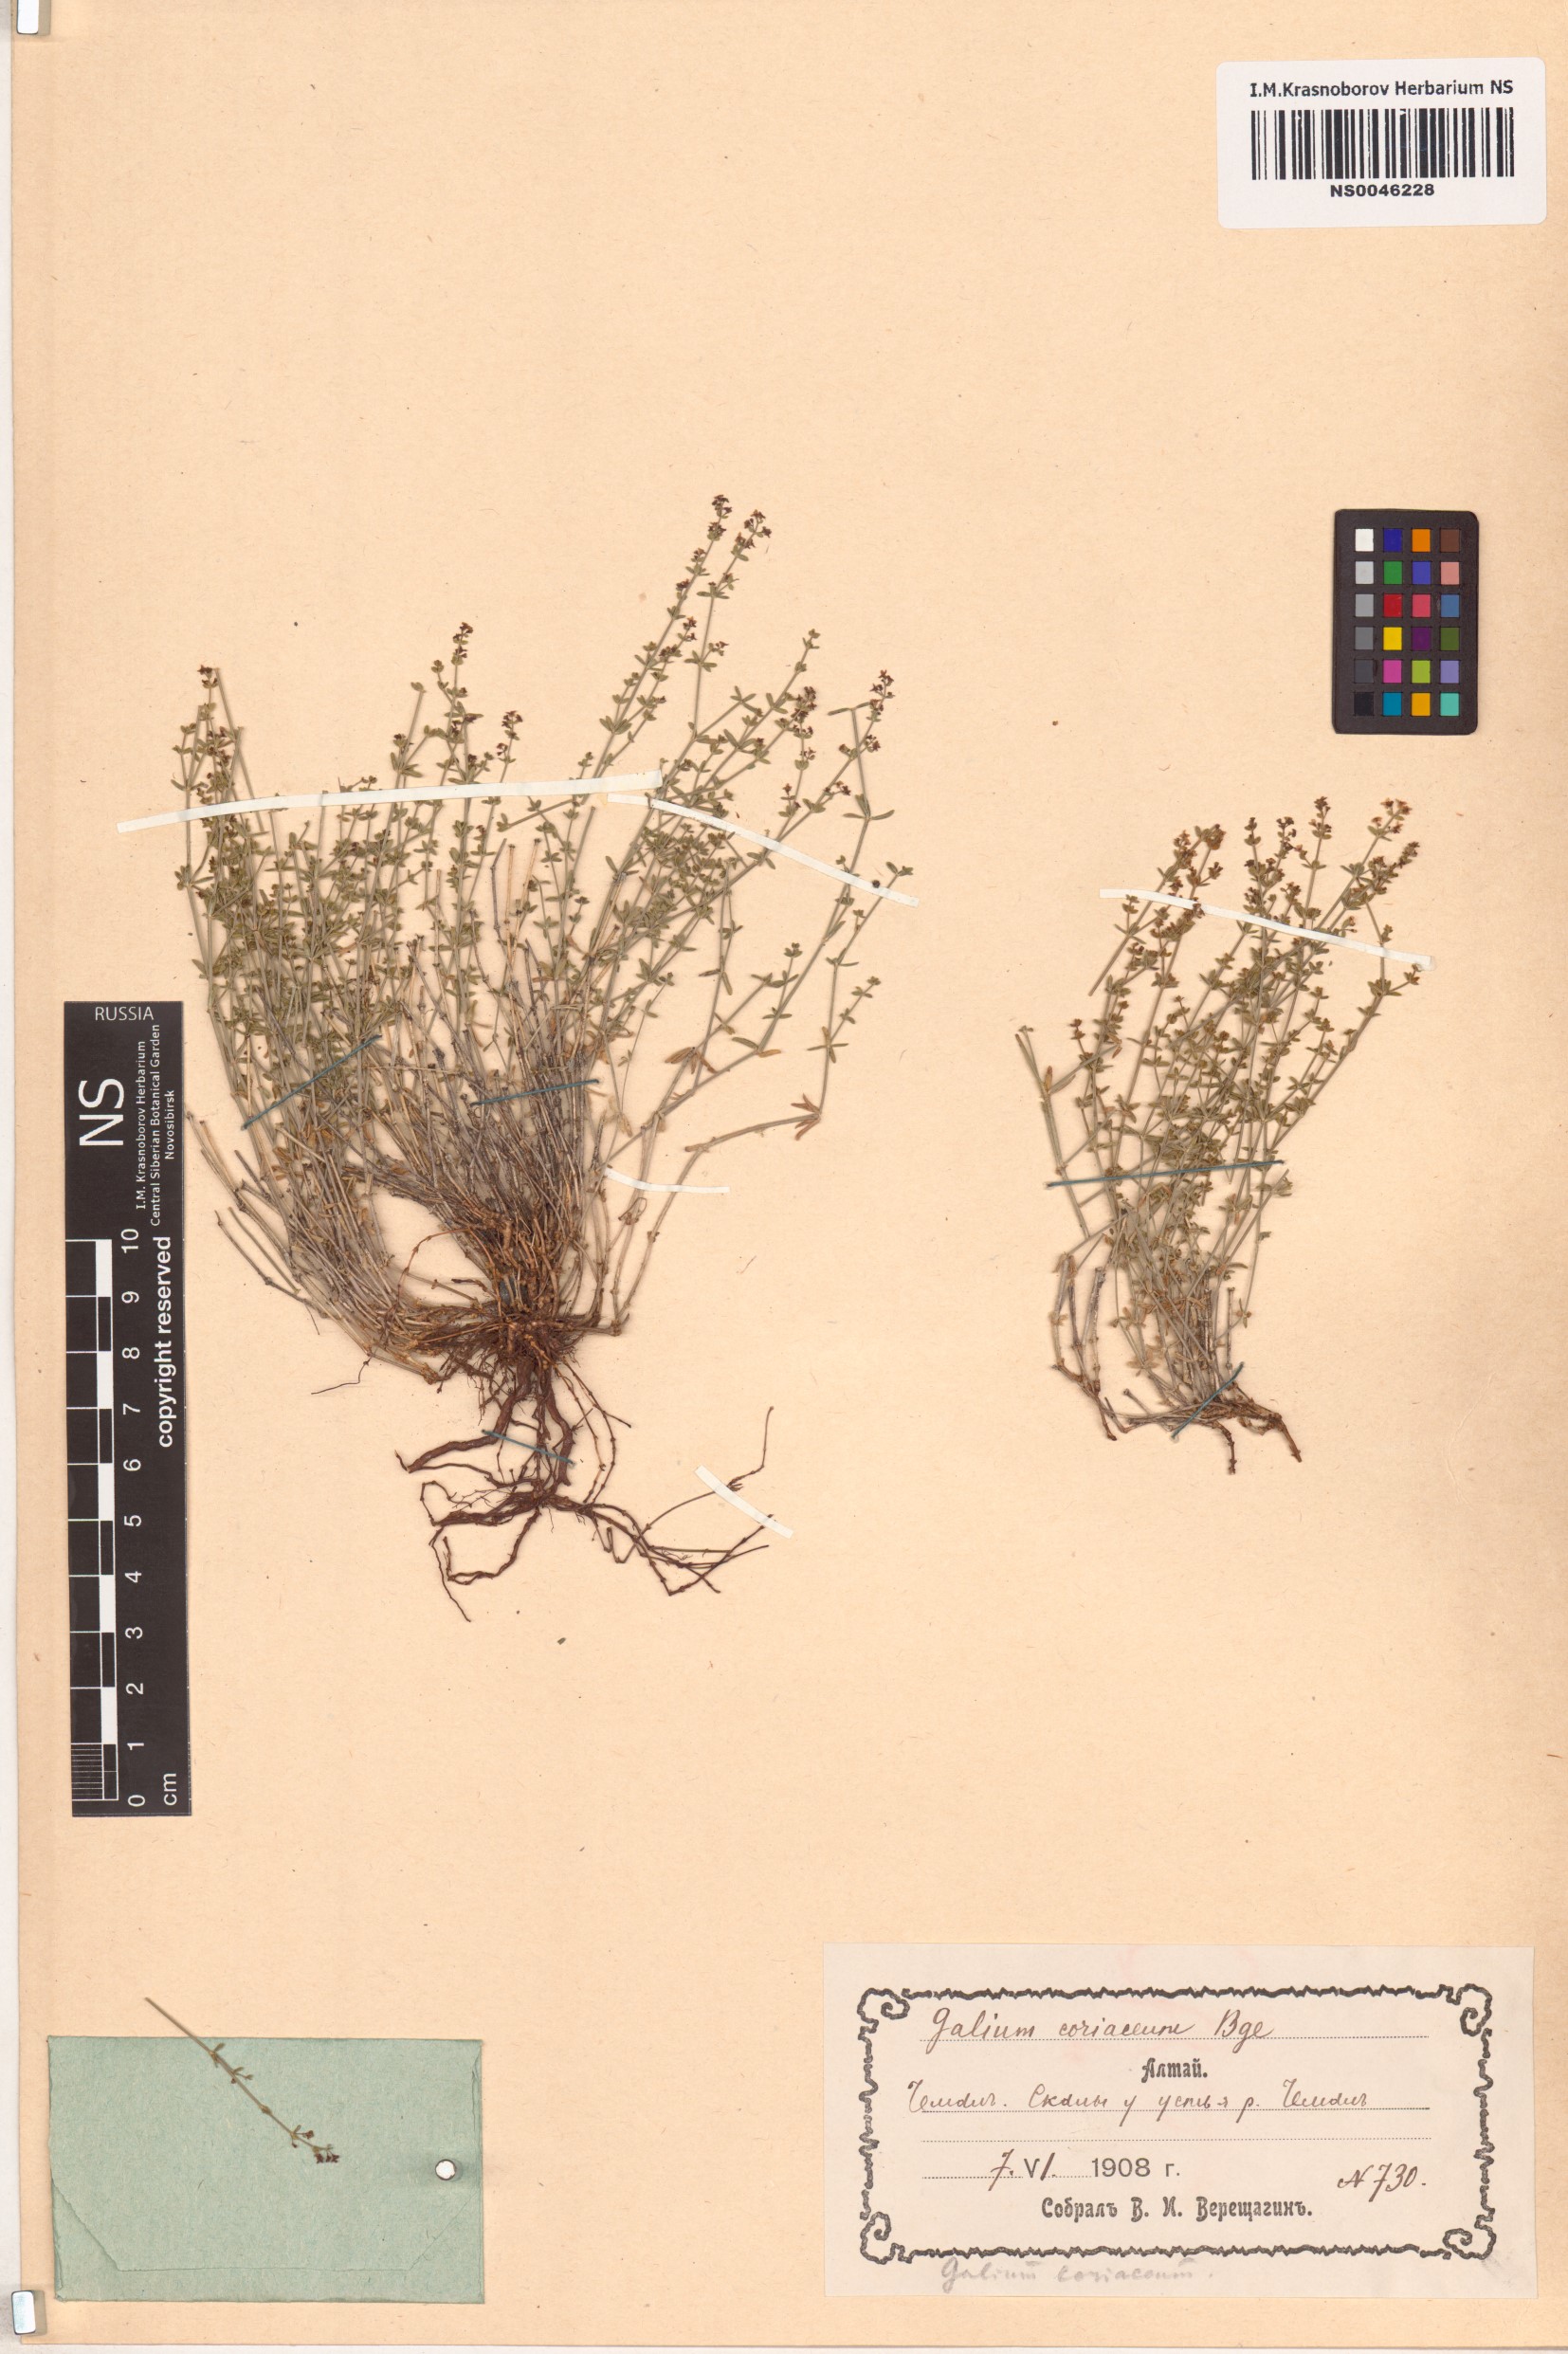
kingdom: Plantae
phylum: Tracheophyta
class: Magnoliopsida
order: Gentianales
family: Rubiaceae
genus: Galium
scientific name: Galium coriaceum
